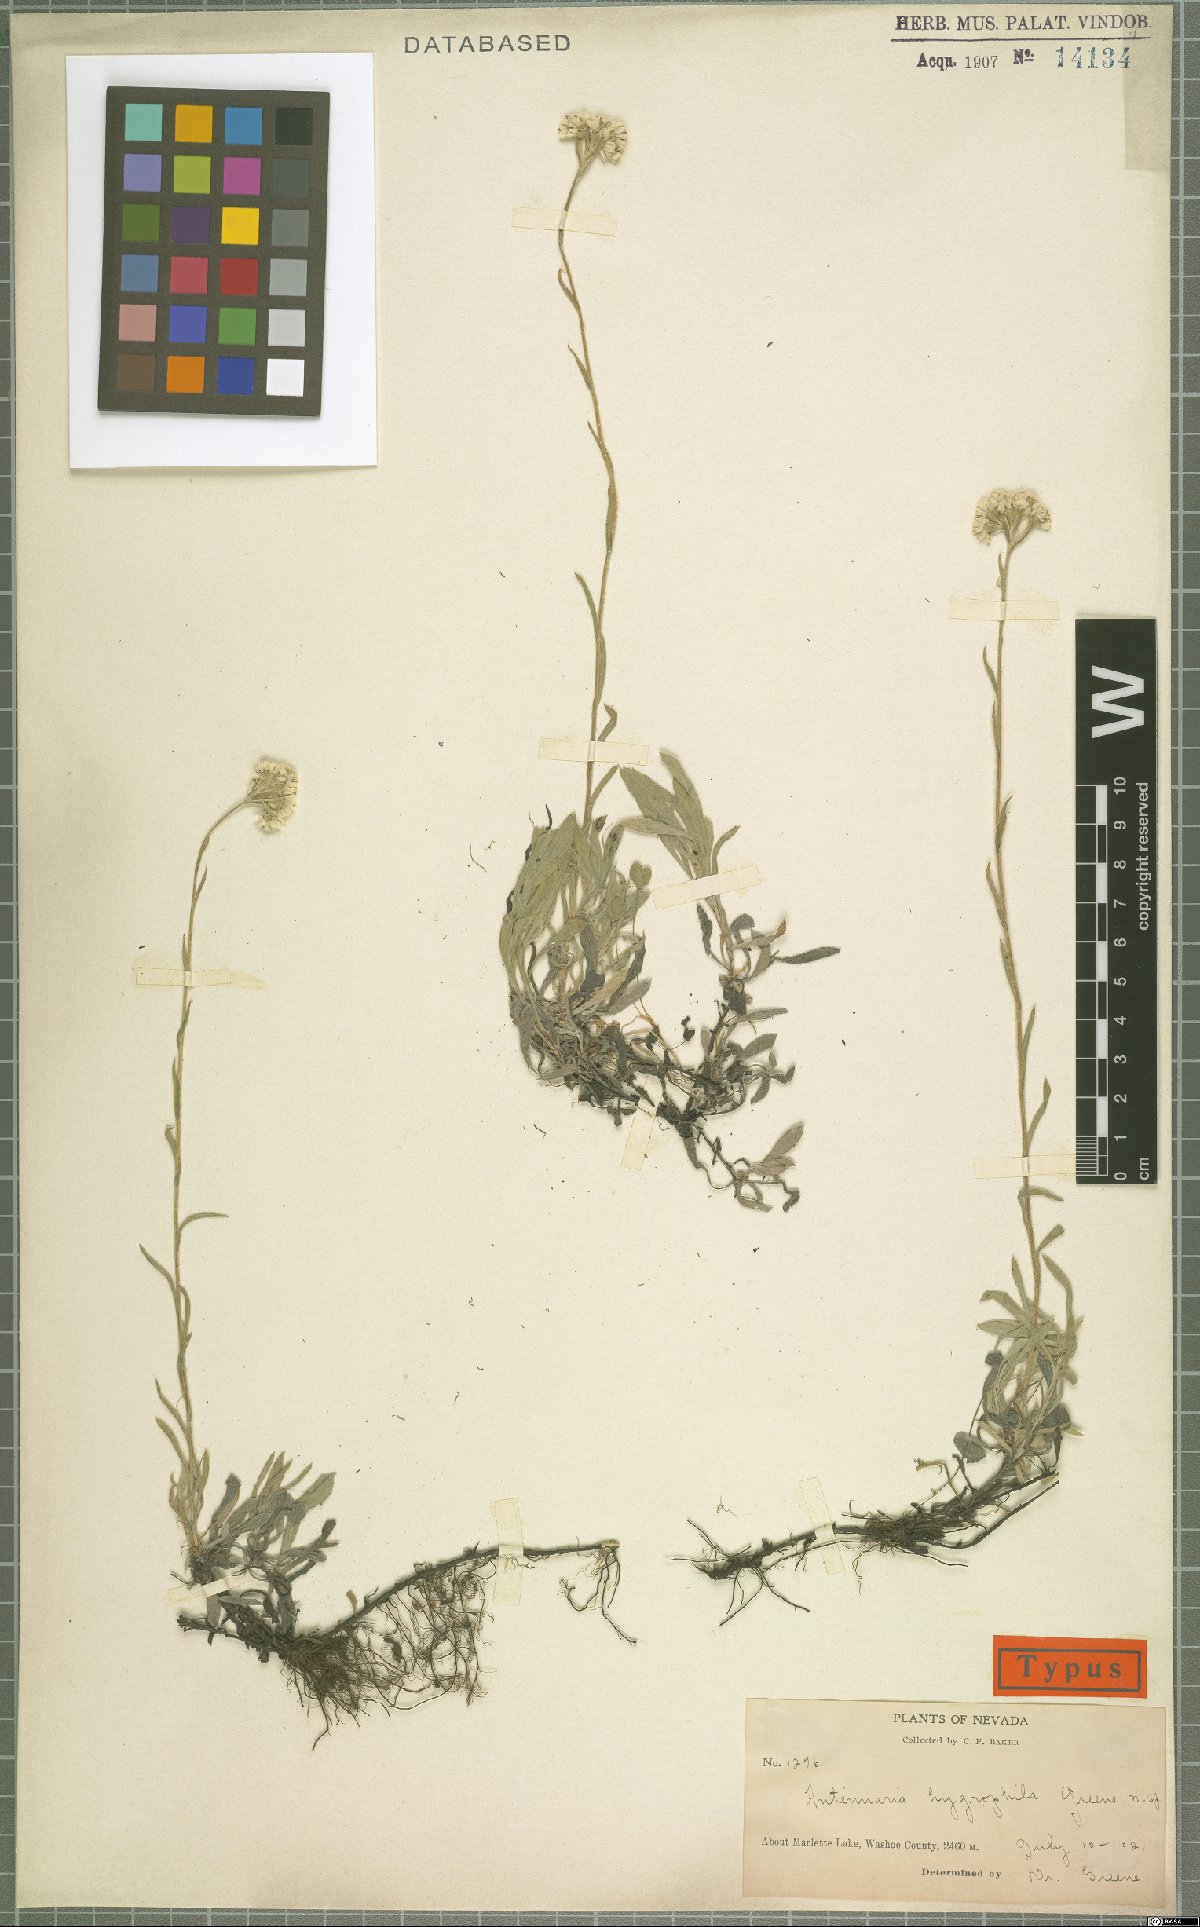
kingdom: Plantae
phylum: Tracheophyta
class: Magnoliopsida
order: Asterales
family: Asteraceae
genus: Antennaria
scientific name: Antennaria corymbosa
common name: Meadow pussytoes
